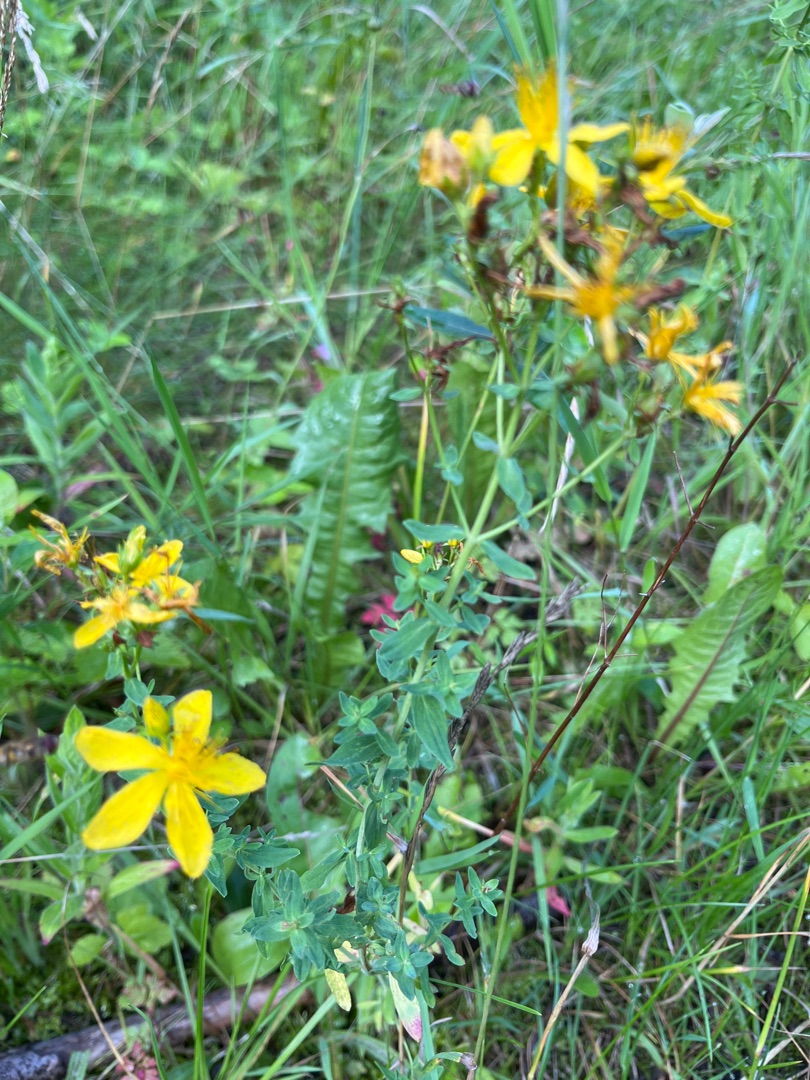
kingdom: Plantae
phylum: Tracheophyta
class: Magnoliopsida
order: Malpighiales
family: Hypericaceae
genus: Hypericum
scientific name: Hypericum perforatum
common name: Prikbladet perikon
